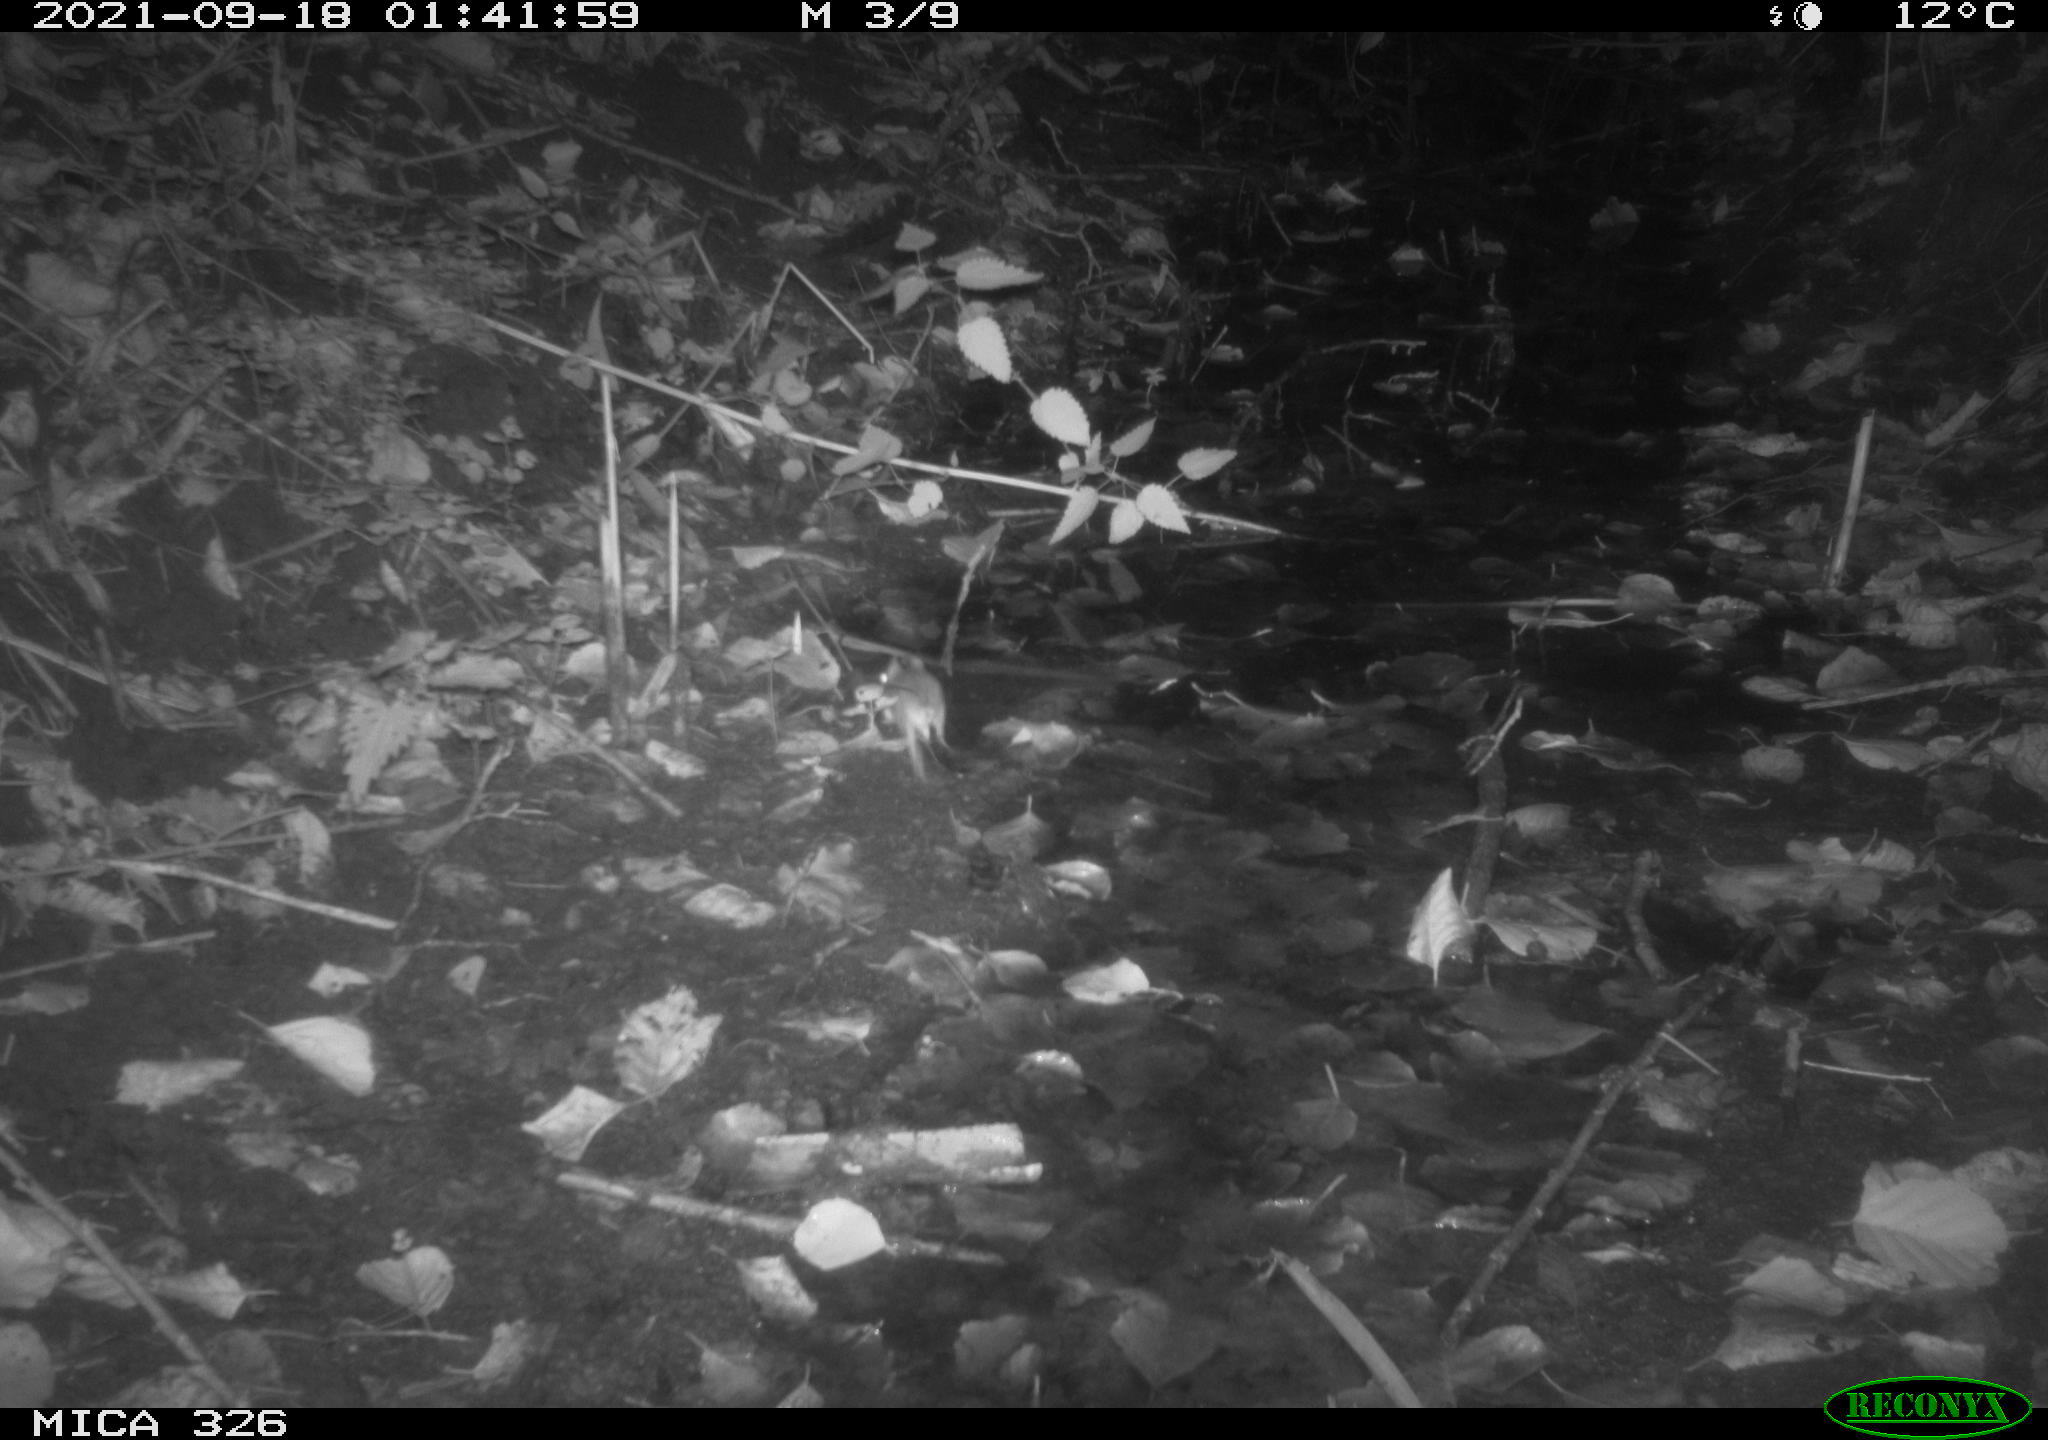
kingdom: Animalia
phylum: Chordata
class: Mammalia
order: Rodentia
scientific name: Rodentia
